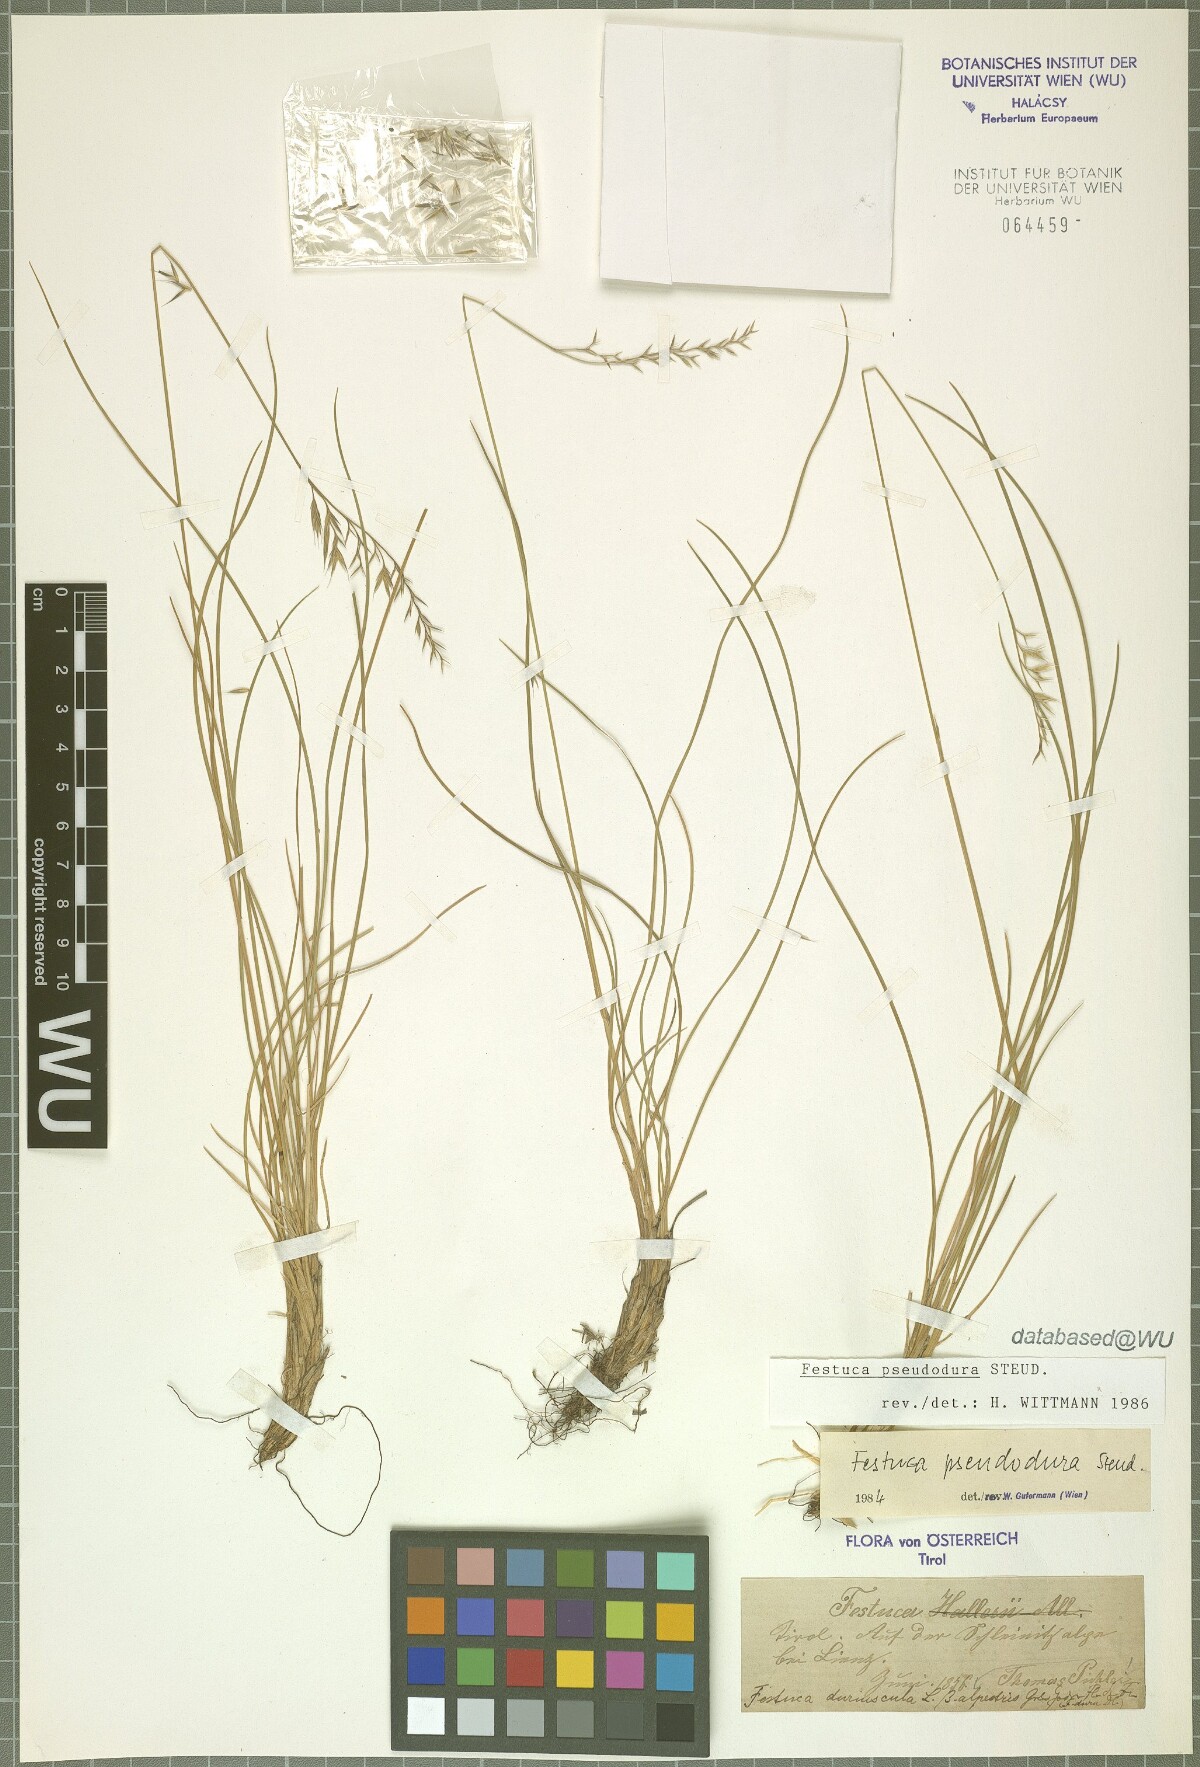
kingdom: Plantae
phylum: Tracheophyta
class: Liliopsida
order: Poales
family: Poaceae
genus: Festuca
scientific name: Festuca pseudodura
